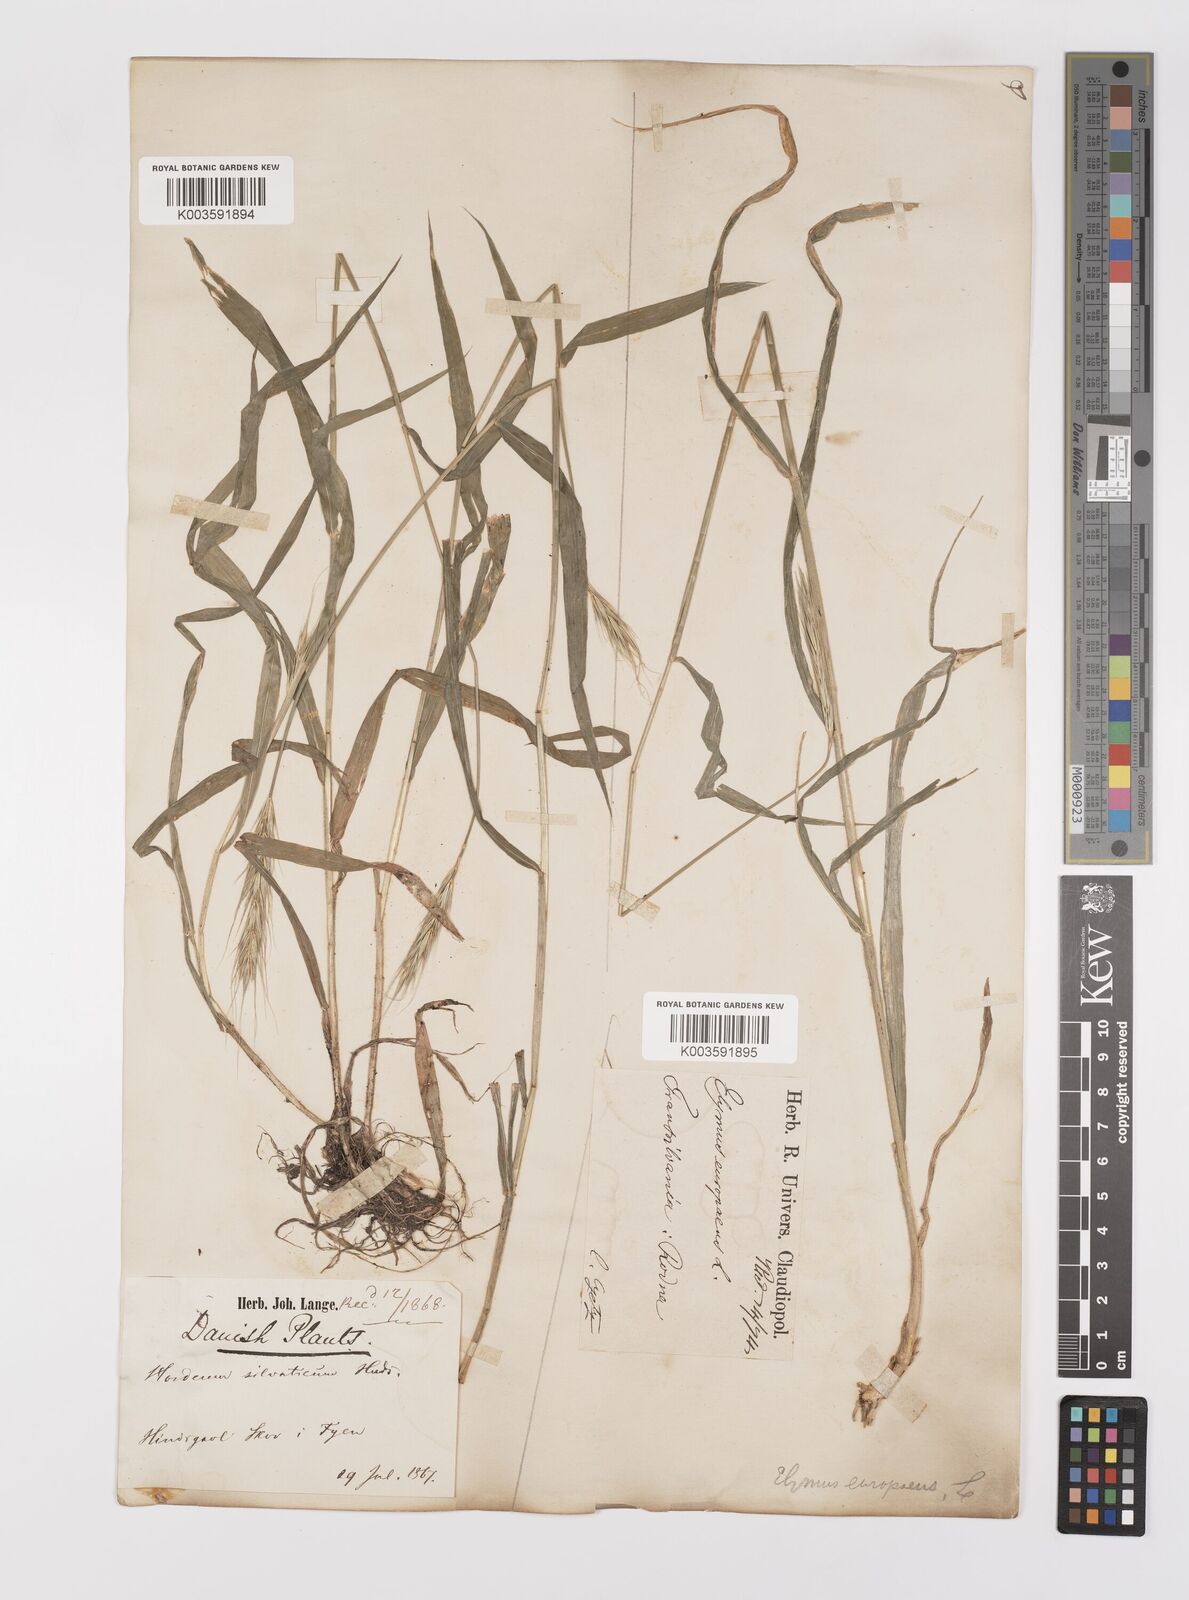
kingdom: Plantae
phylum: Tracheophyta
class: Liliopsida
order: Poales
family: Poaceae
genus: Hordelymus
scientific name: Hordelymus europaeus
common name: Wood-barley
